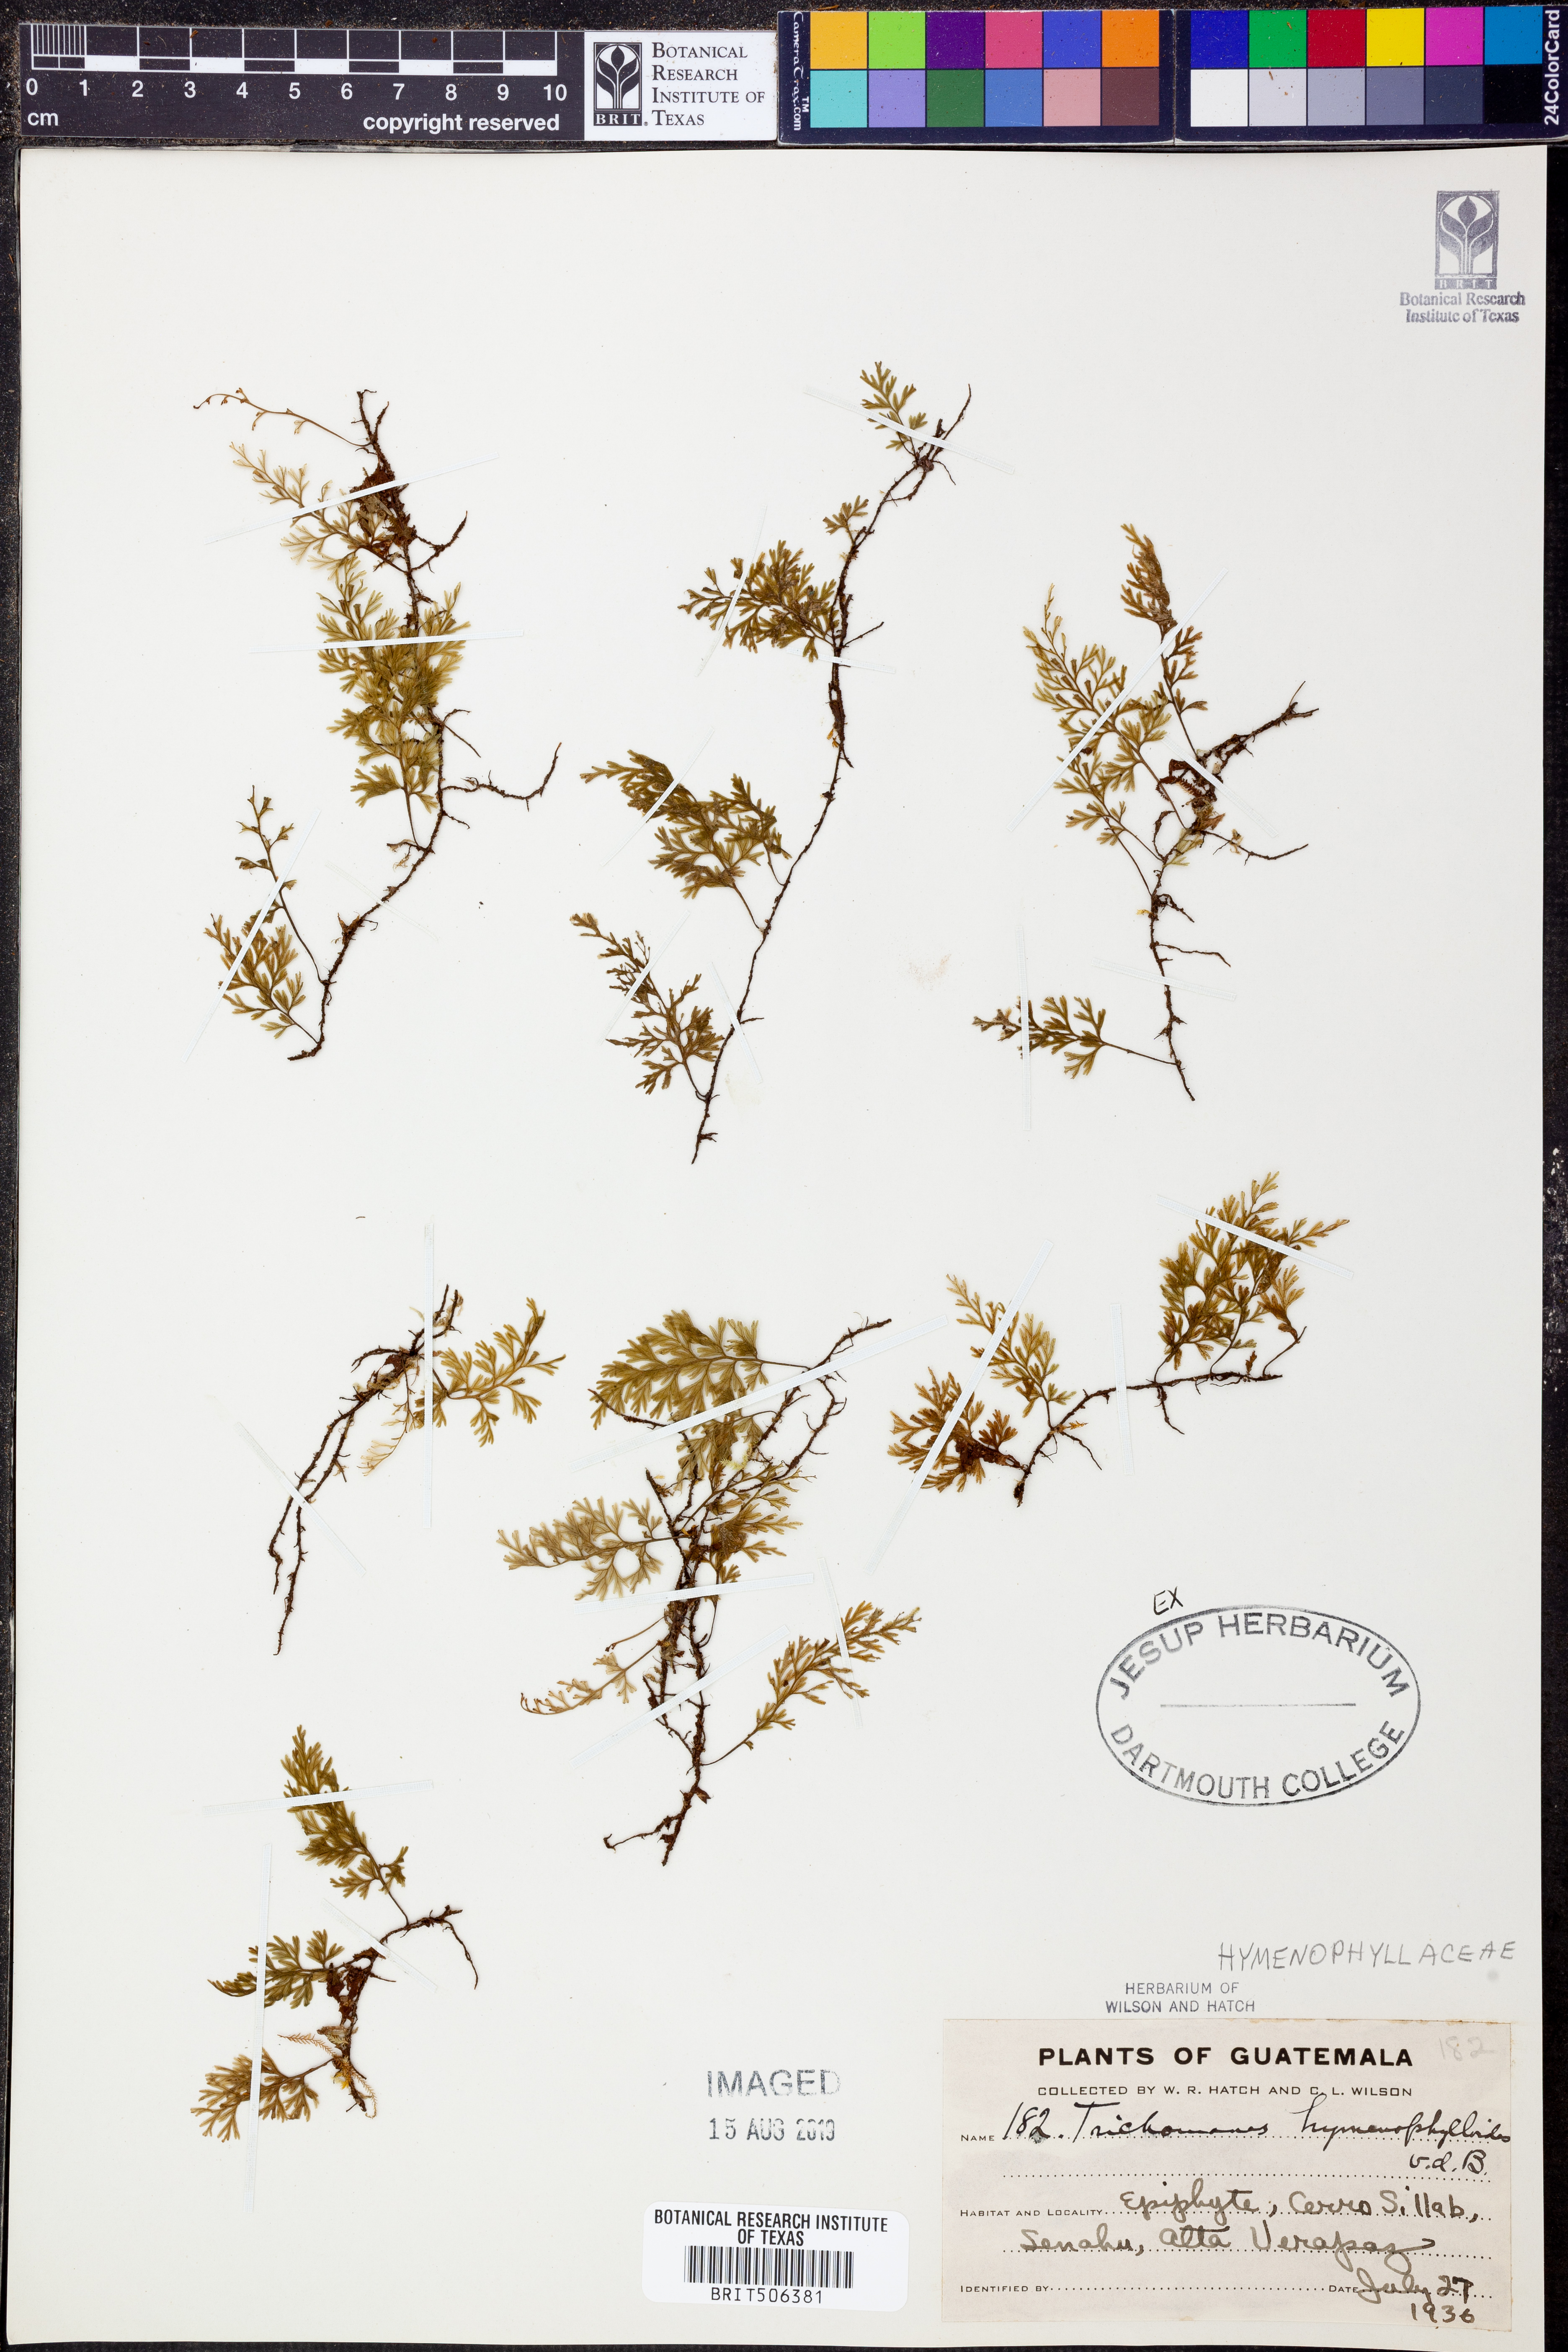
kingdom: Plantae
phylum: Tracheophyta
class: Polypodiopsida
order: Hymenophyllales
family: Hymenophyllaceae
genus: Polyphlebium
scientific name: Polyphlebium hymenophylloides
